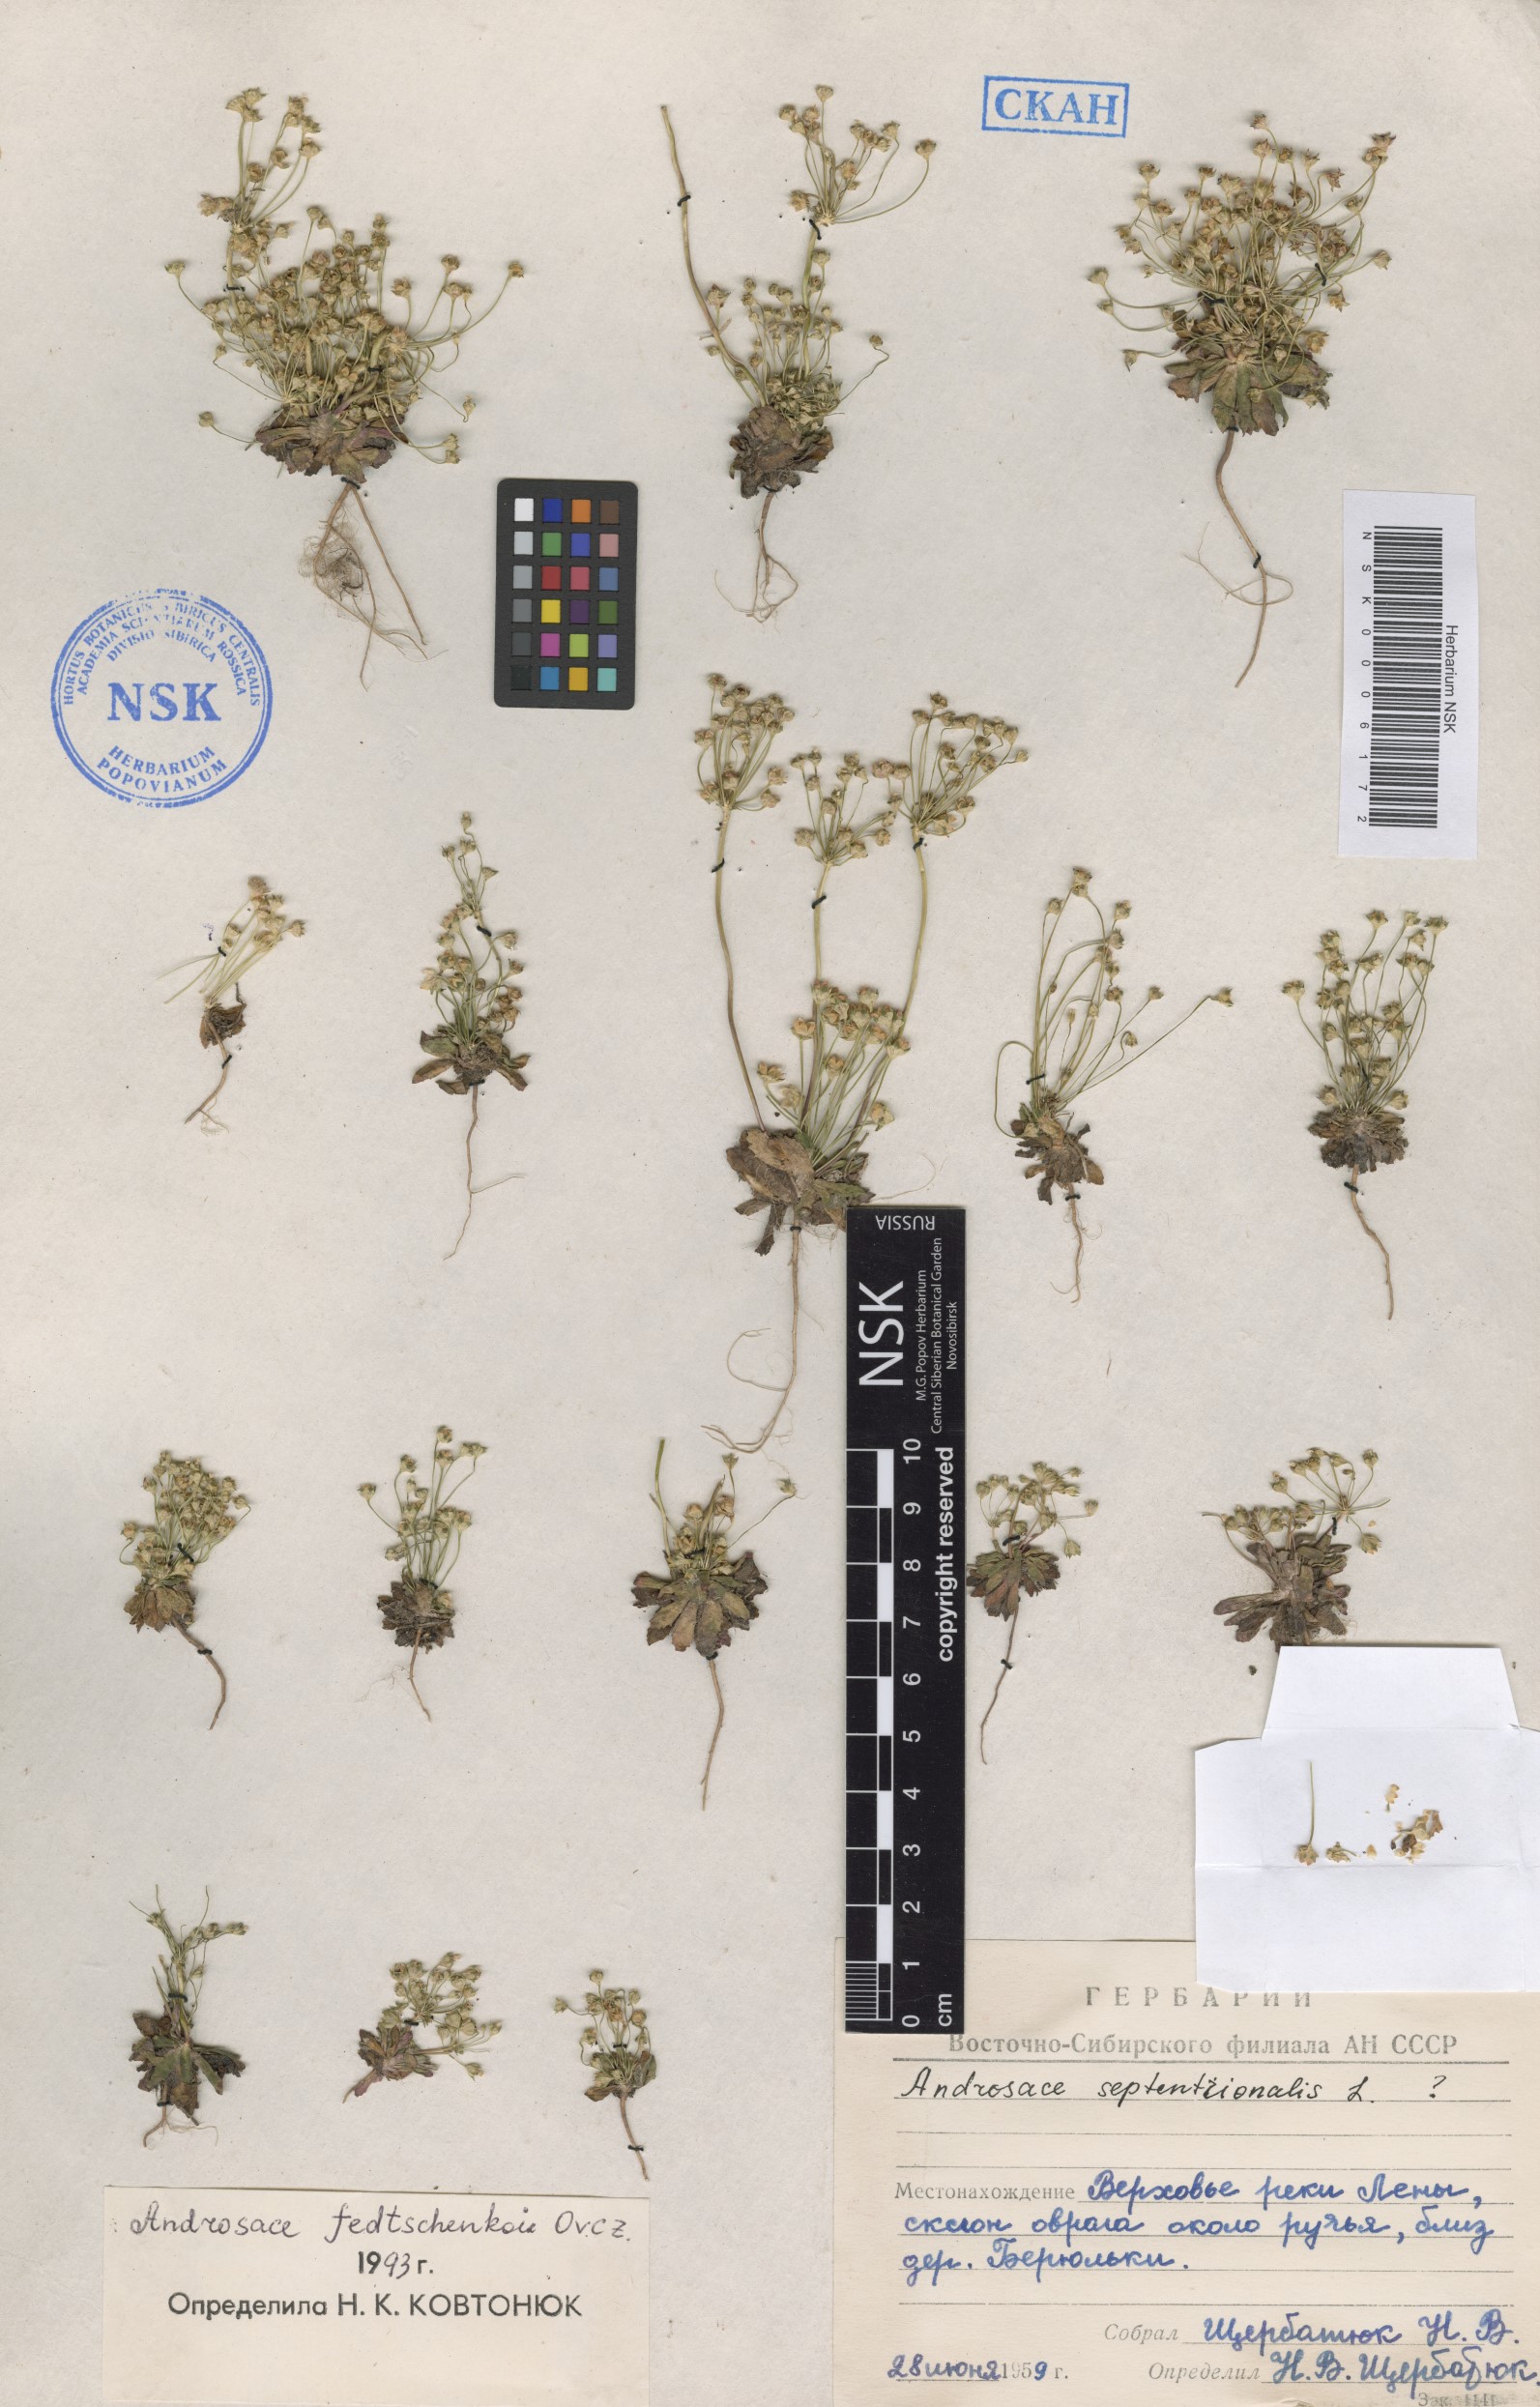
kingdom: Plantae
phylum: Tracheophyta
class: Magnoliopsida
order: Ericales
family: Primulaceae
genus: Androsace
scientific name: Androsace fedtschenkoi
